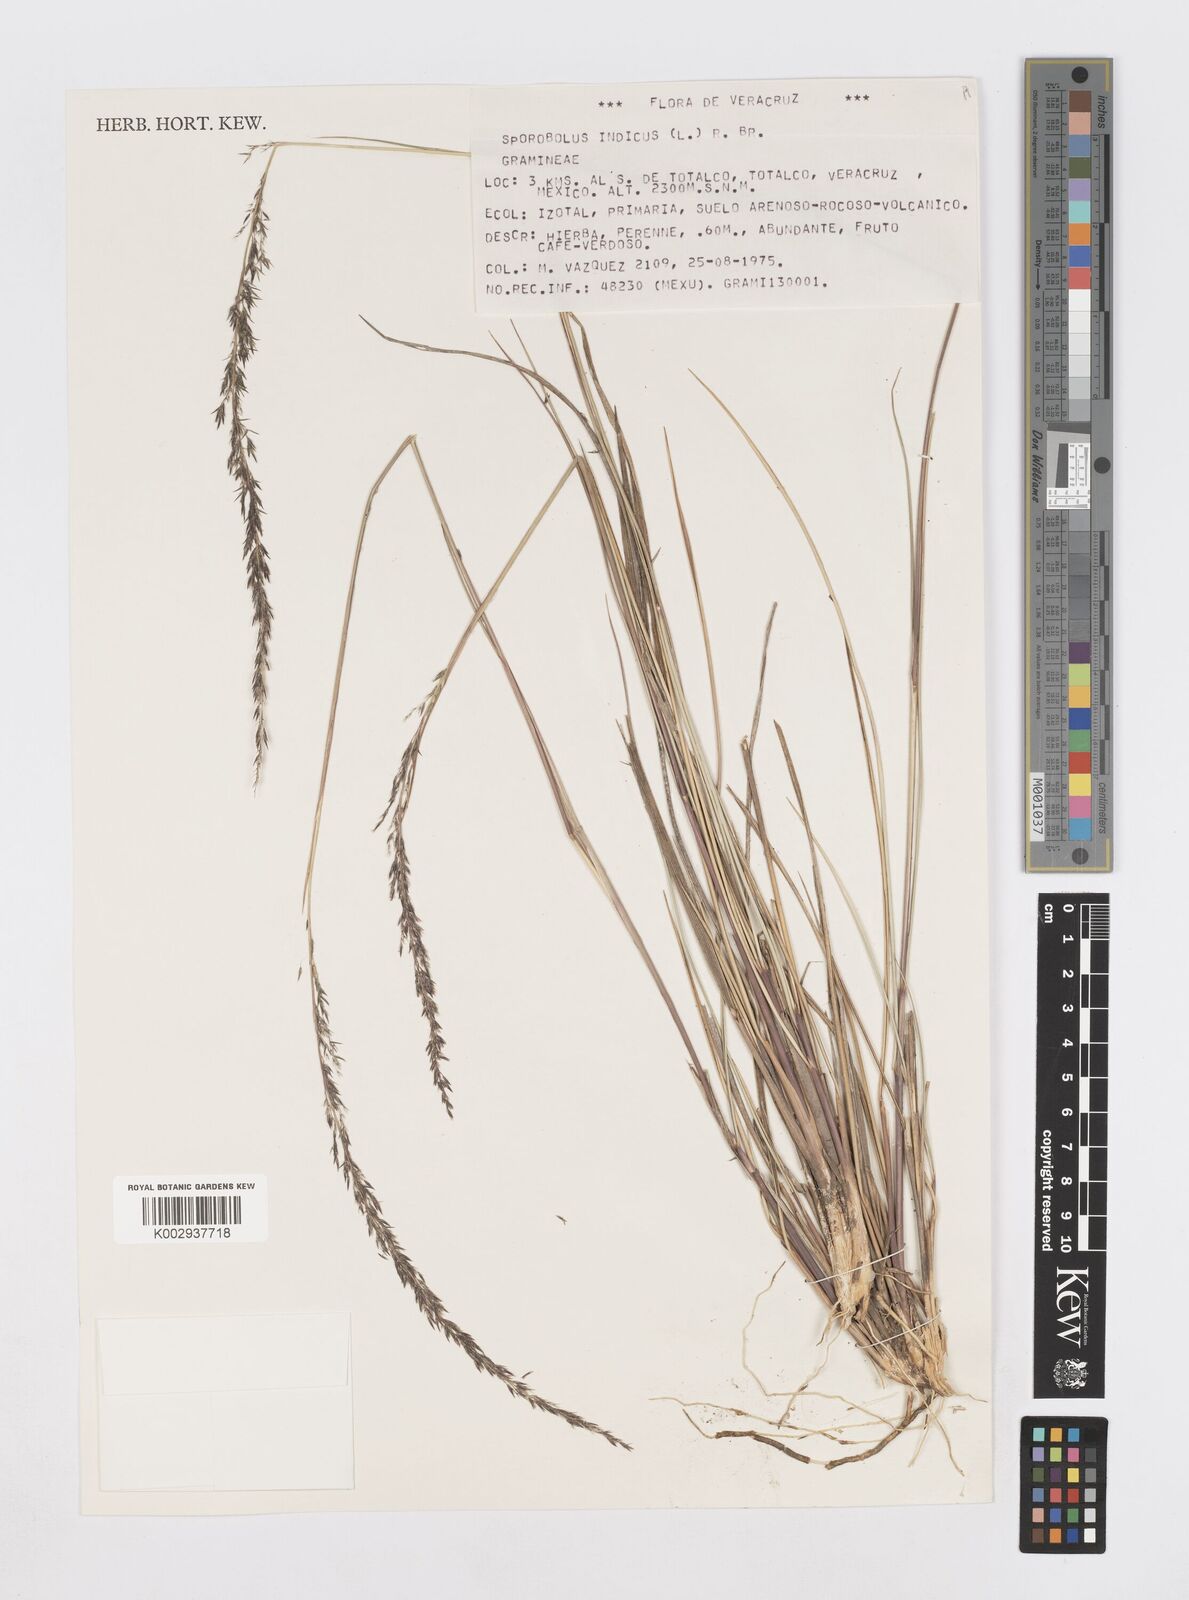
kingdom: Plantae
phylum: Tracheophyta
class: Liliopsida
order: Poales
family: Poaceae
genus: Sporobolus
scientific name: Sporobolus junceus
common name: Lizard grass
